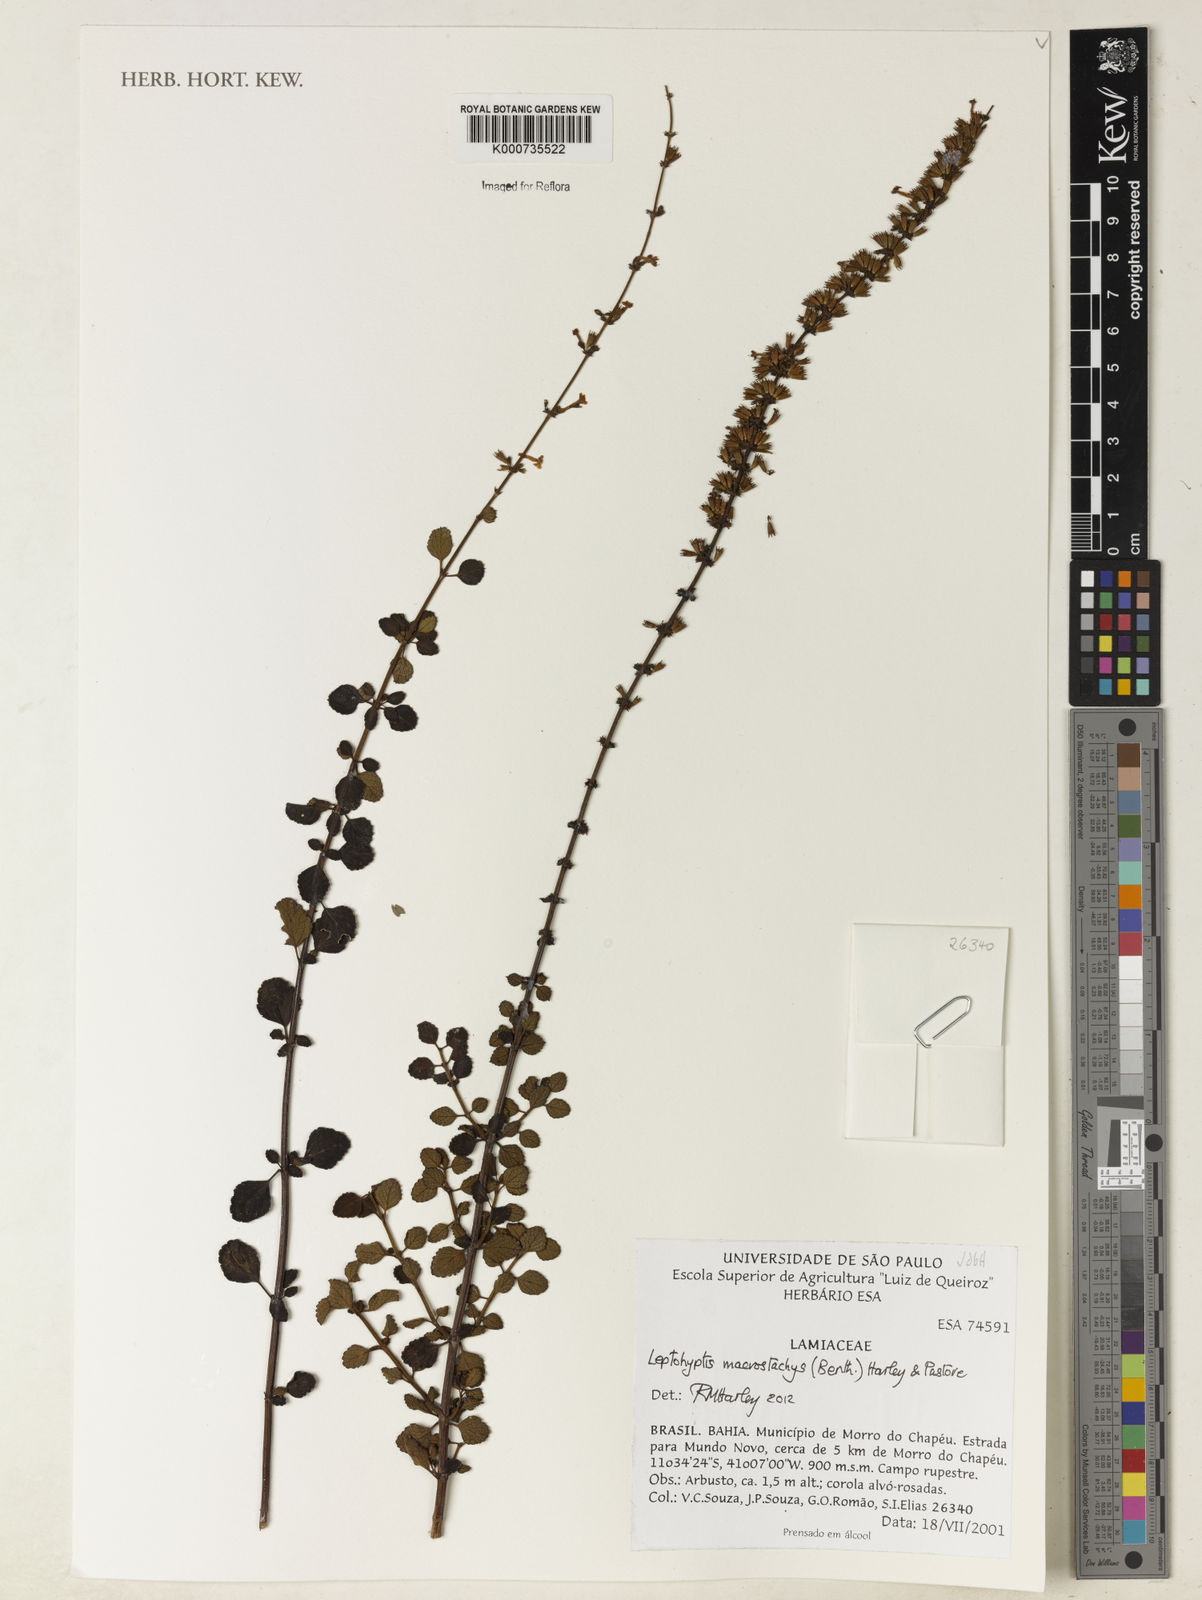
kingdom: Plantae
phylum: Tracheophyta
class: Magnoliopsida
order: Lamiales
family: Lamiaceae
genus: Leptohyptis
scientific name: Leptohyptis macrostachys
